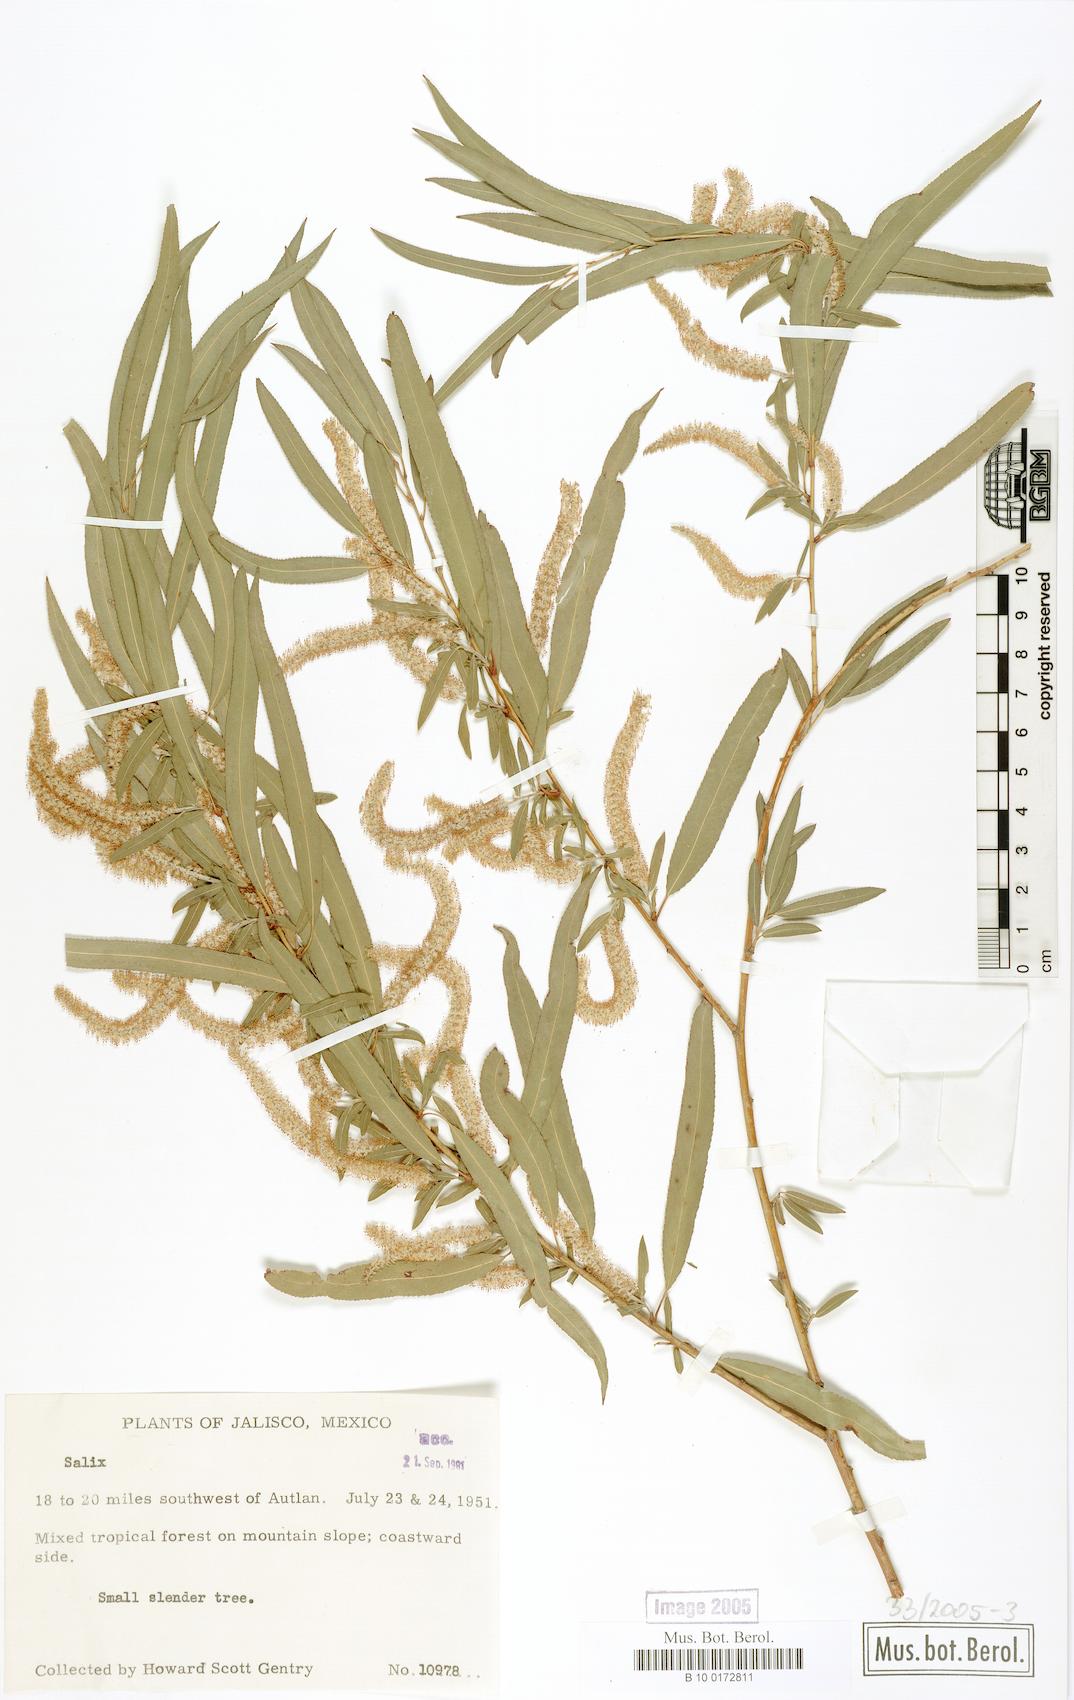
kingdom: Plantae
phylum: Tracheophyta
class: Magnoliopsida
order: Malpighiales
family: Salicaceae
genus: Salix
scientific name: Salix humboldtiana
